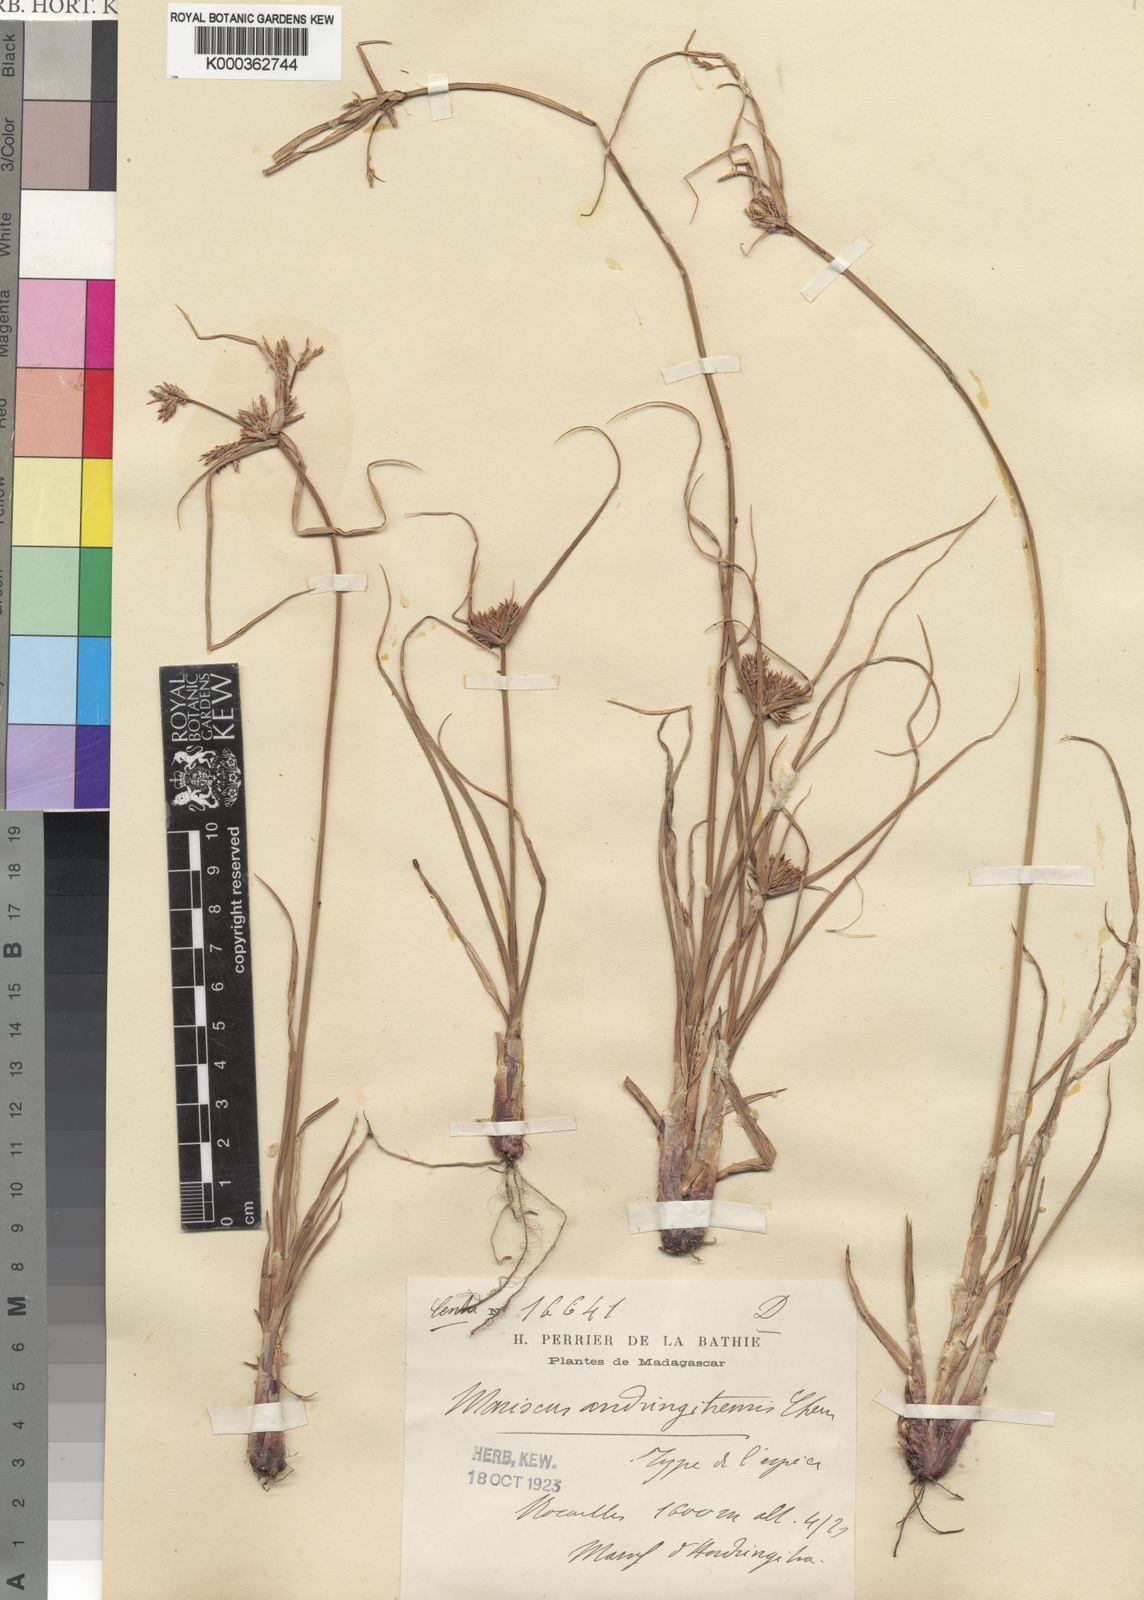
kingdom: Plantae
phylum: Tracheophyta
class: Liliopsida
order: Poales
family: Cyperaceae
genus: Cyperus
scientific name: Cyperus
